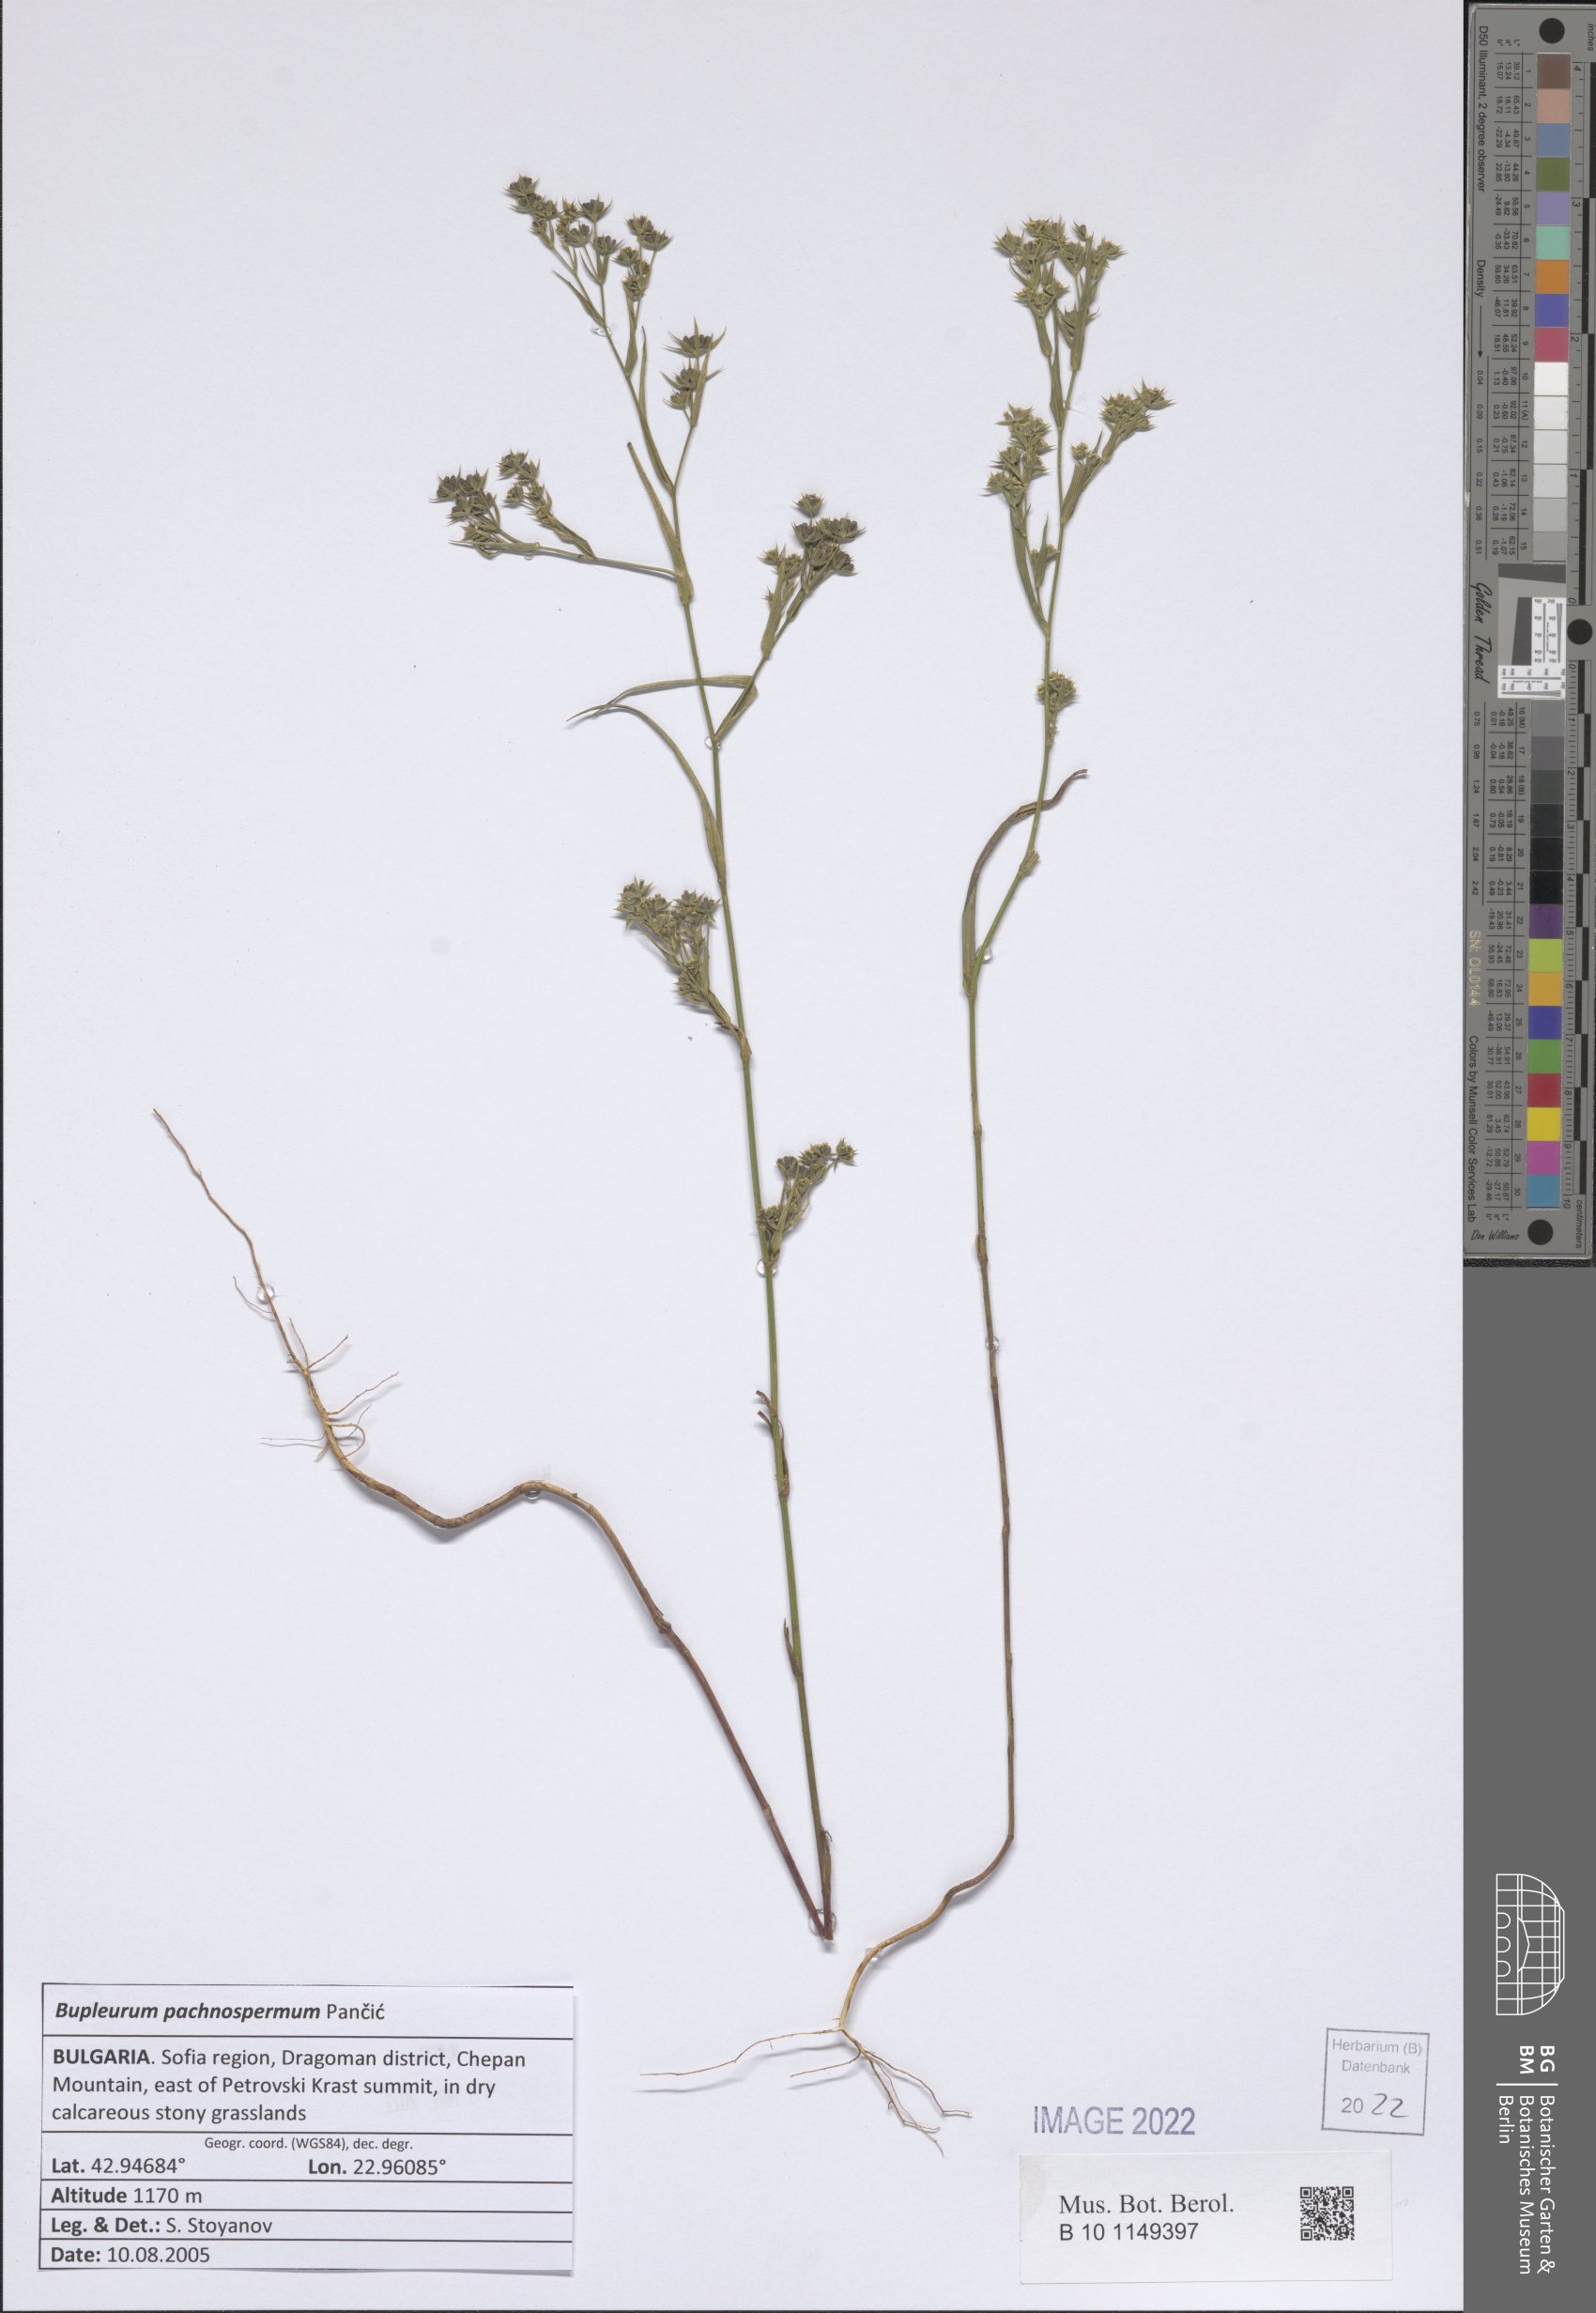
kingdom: Plantae
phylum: Tracheophyta
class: Magnoliopsida
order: Apiales
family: Apiaceae
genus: Bupleurum
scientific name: Bupleurum pachnospermum
